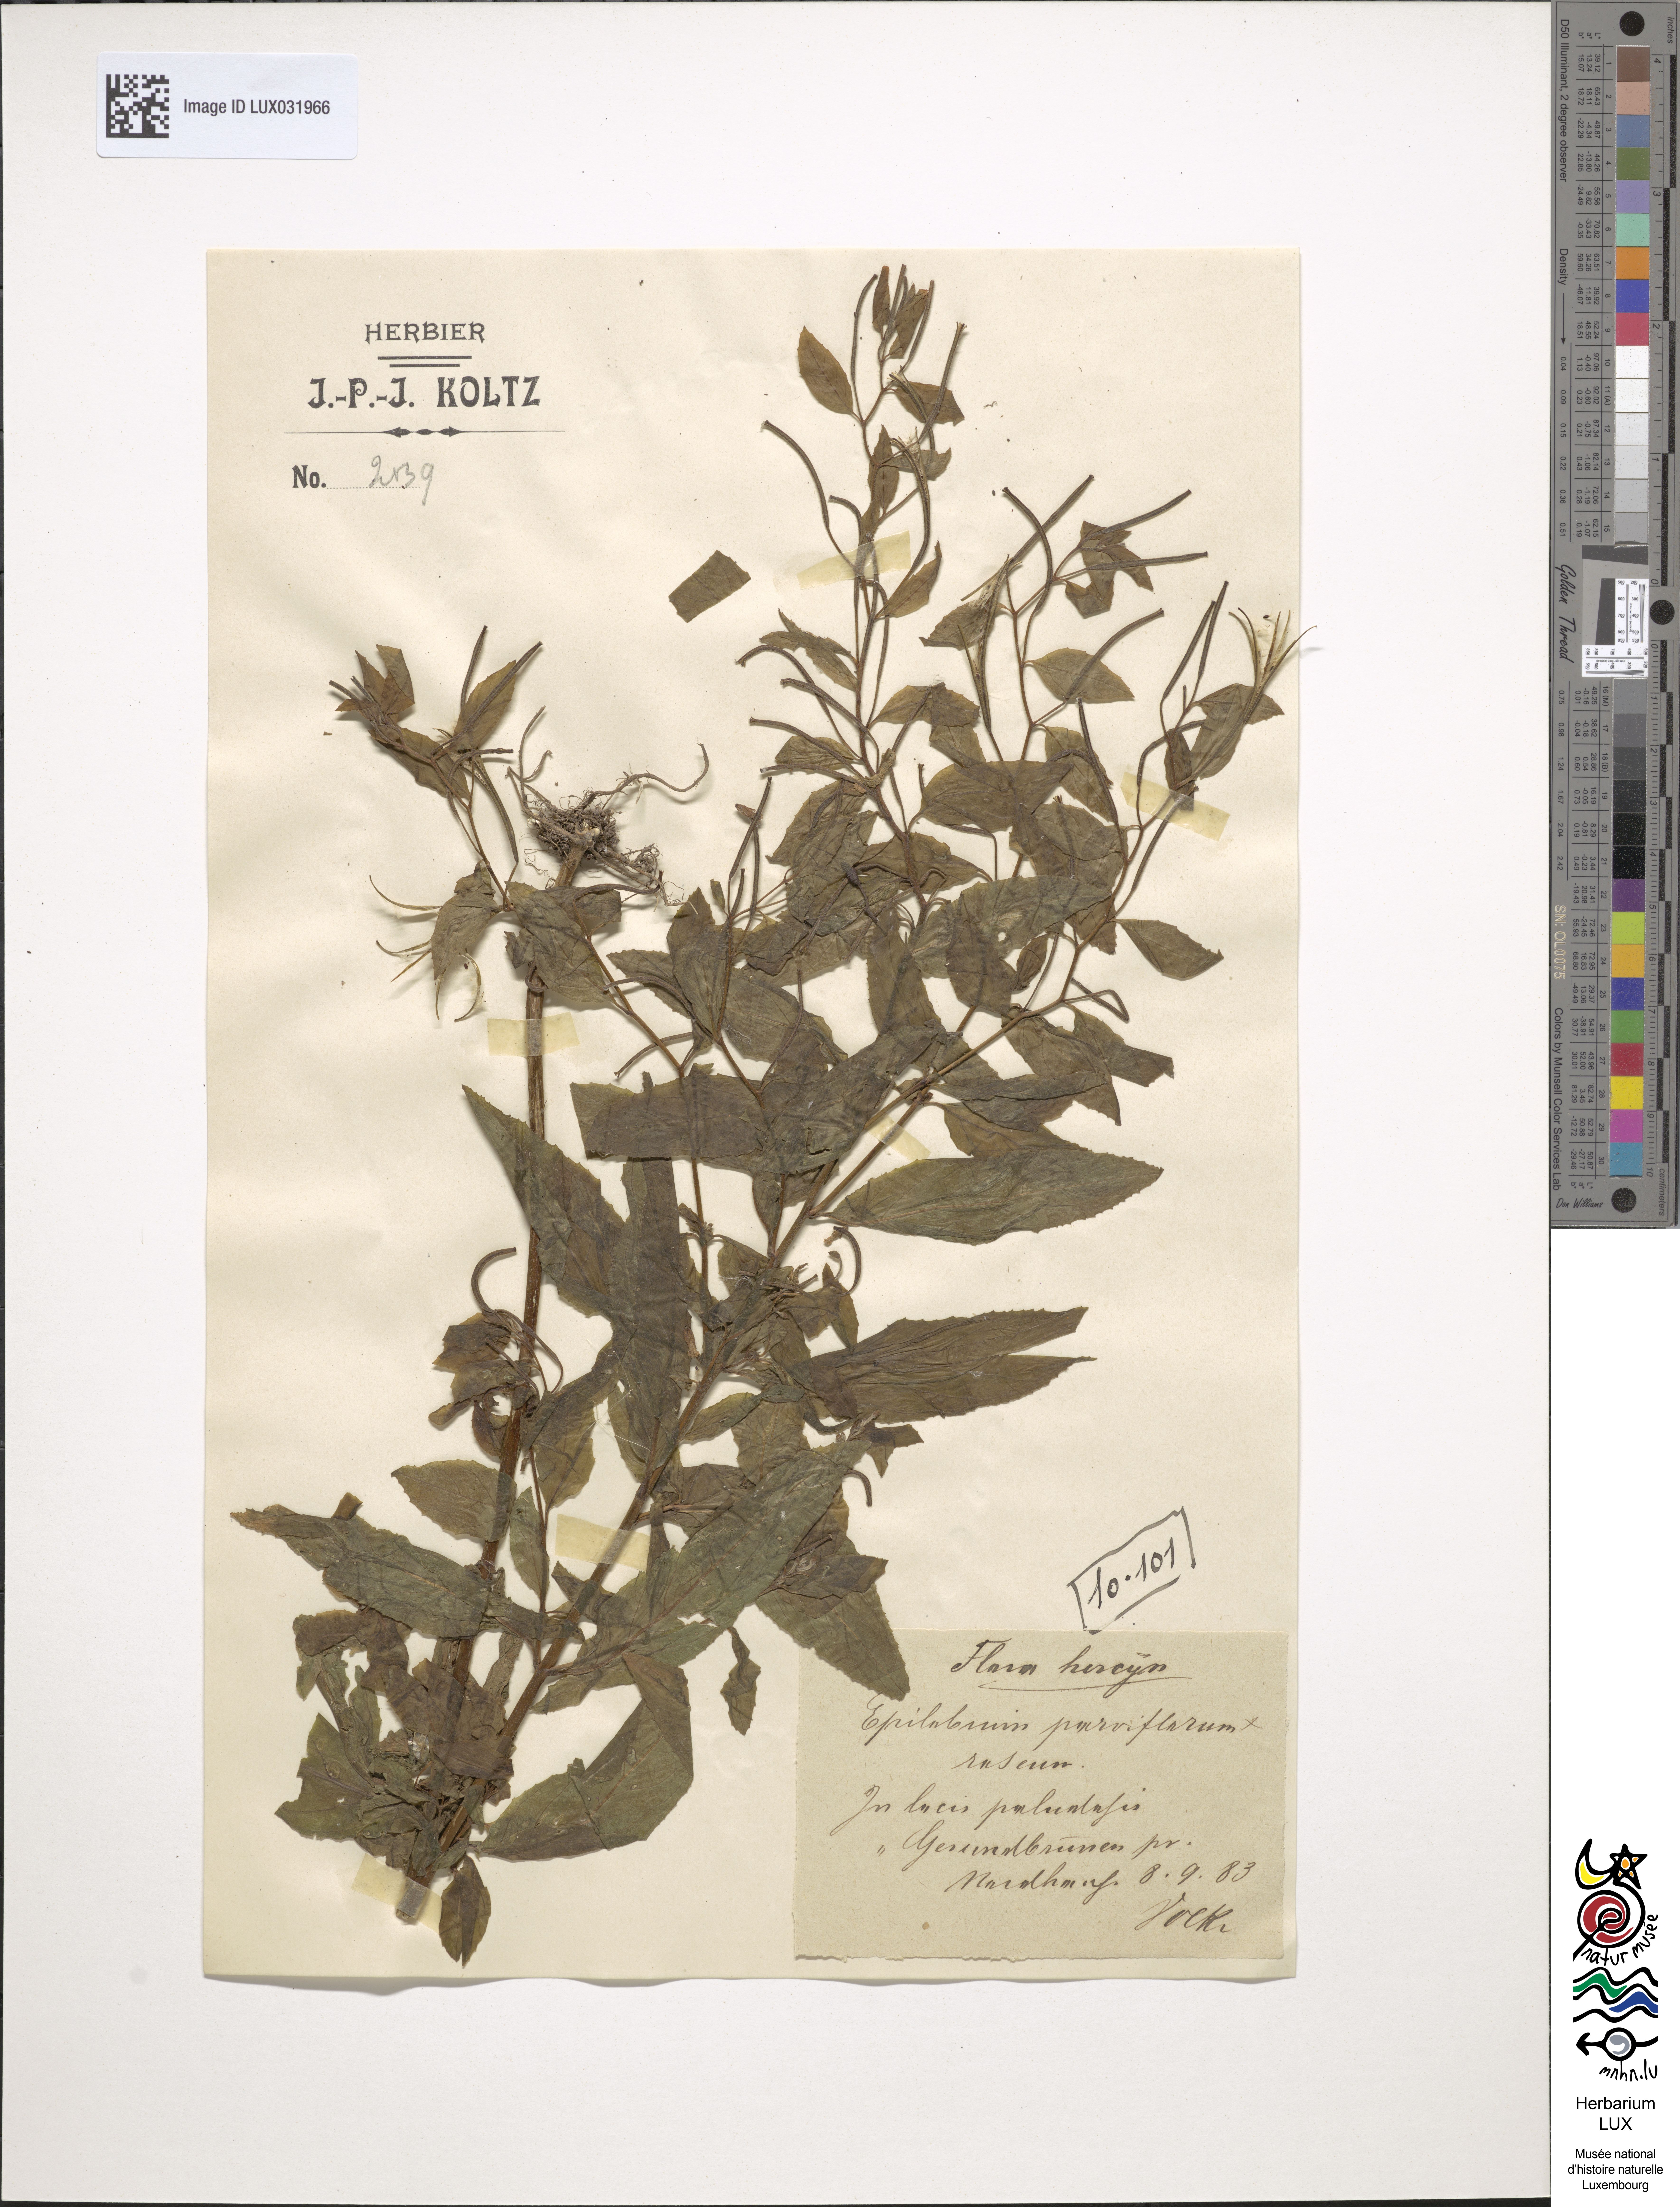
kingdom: Animalia
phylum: Arthropoda
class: Insecta
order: Hymenoptera
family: Megachilidae
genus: Epilobium
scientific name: Epilobium
